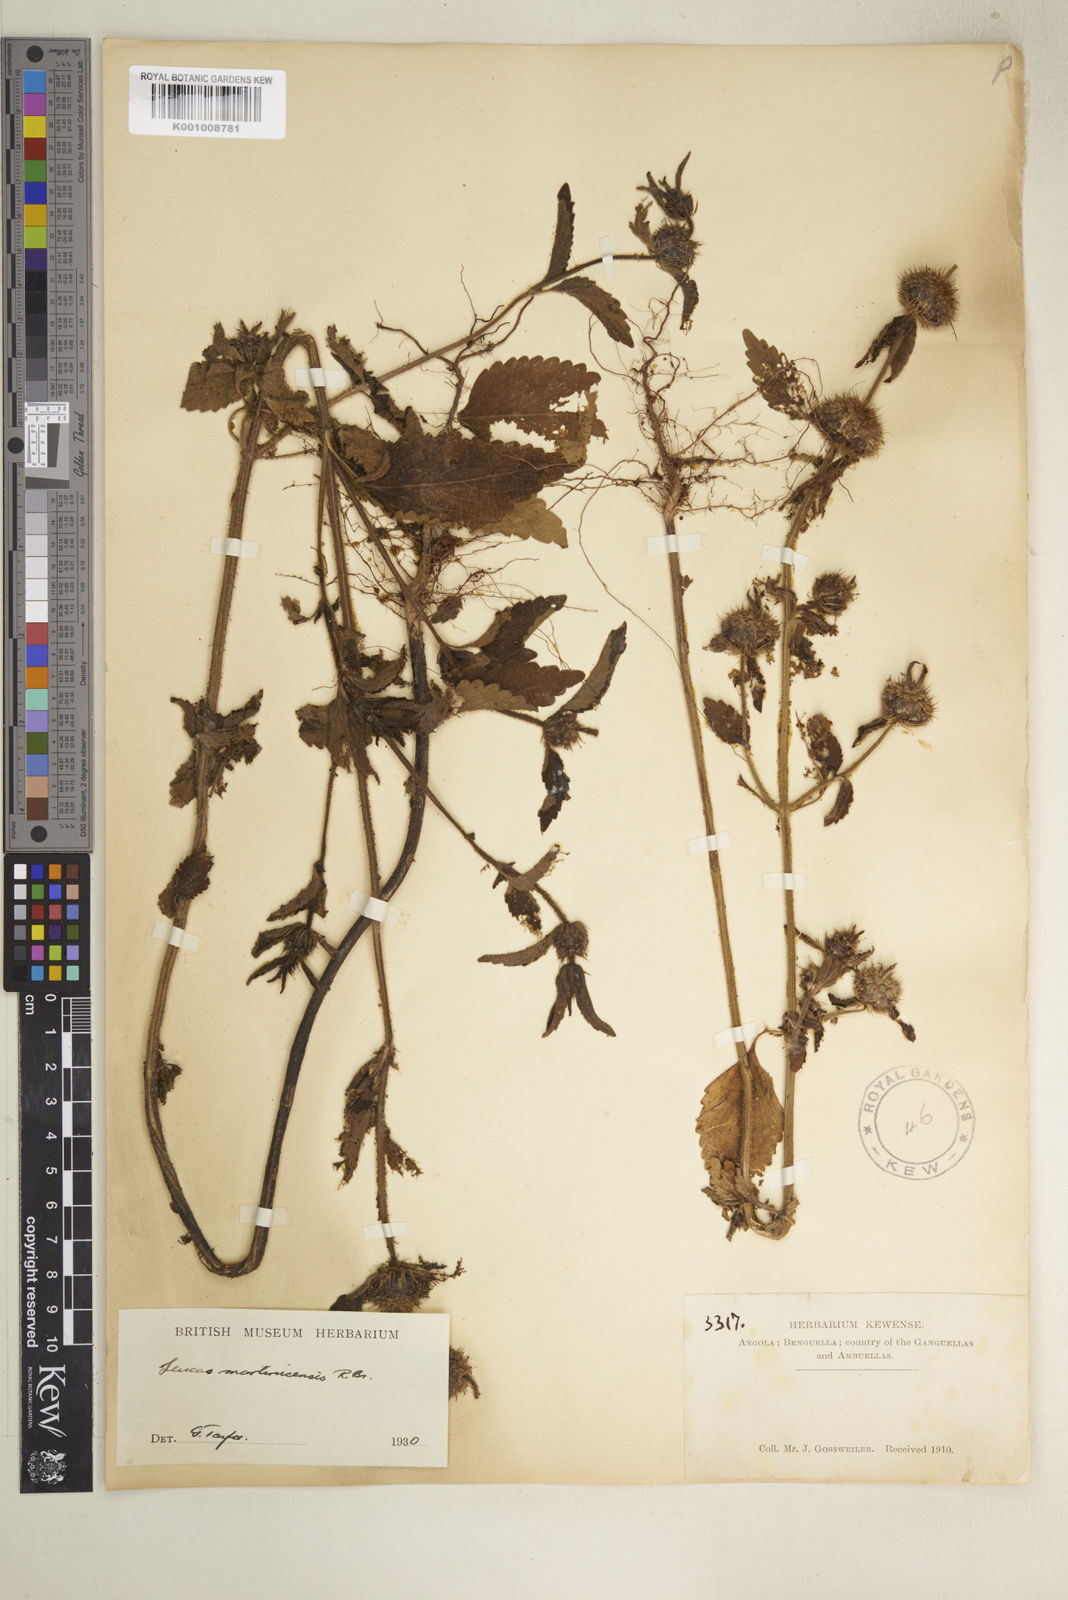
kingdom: Plantae
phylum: Tracheophyta
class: Magnoliopsida
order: Lamiales
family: Lamiaceae
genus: Leucas
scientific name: Leucas martinicensis
